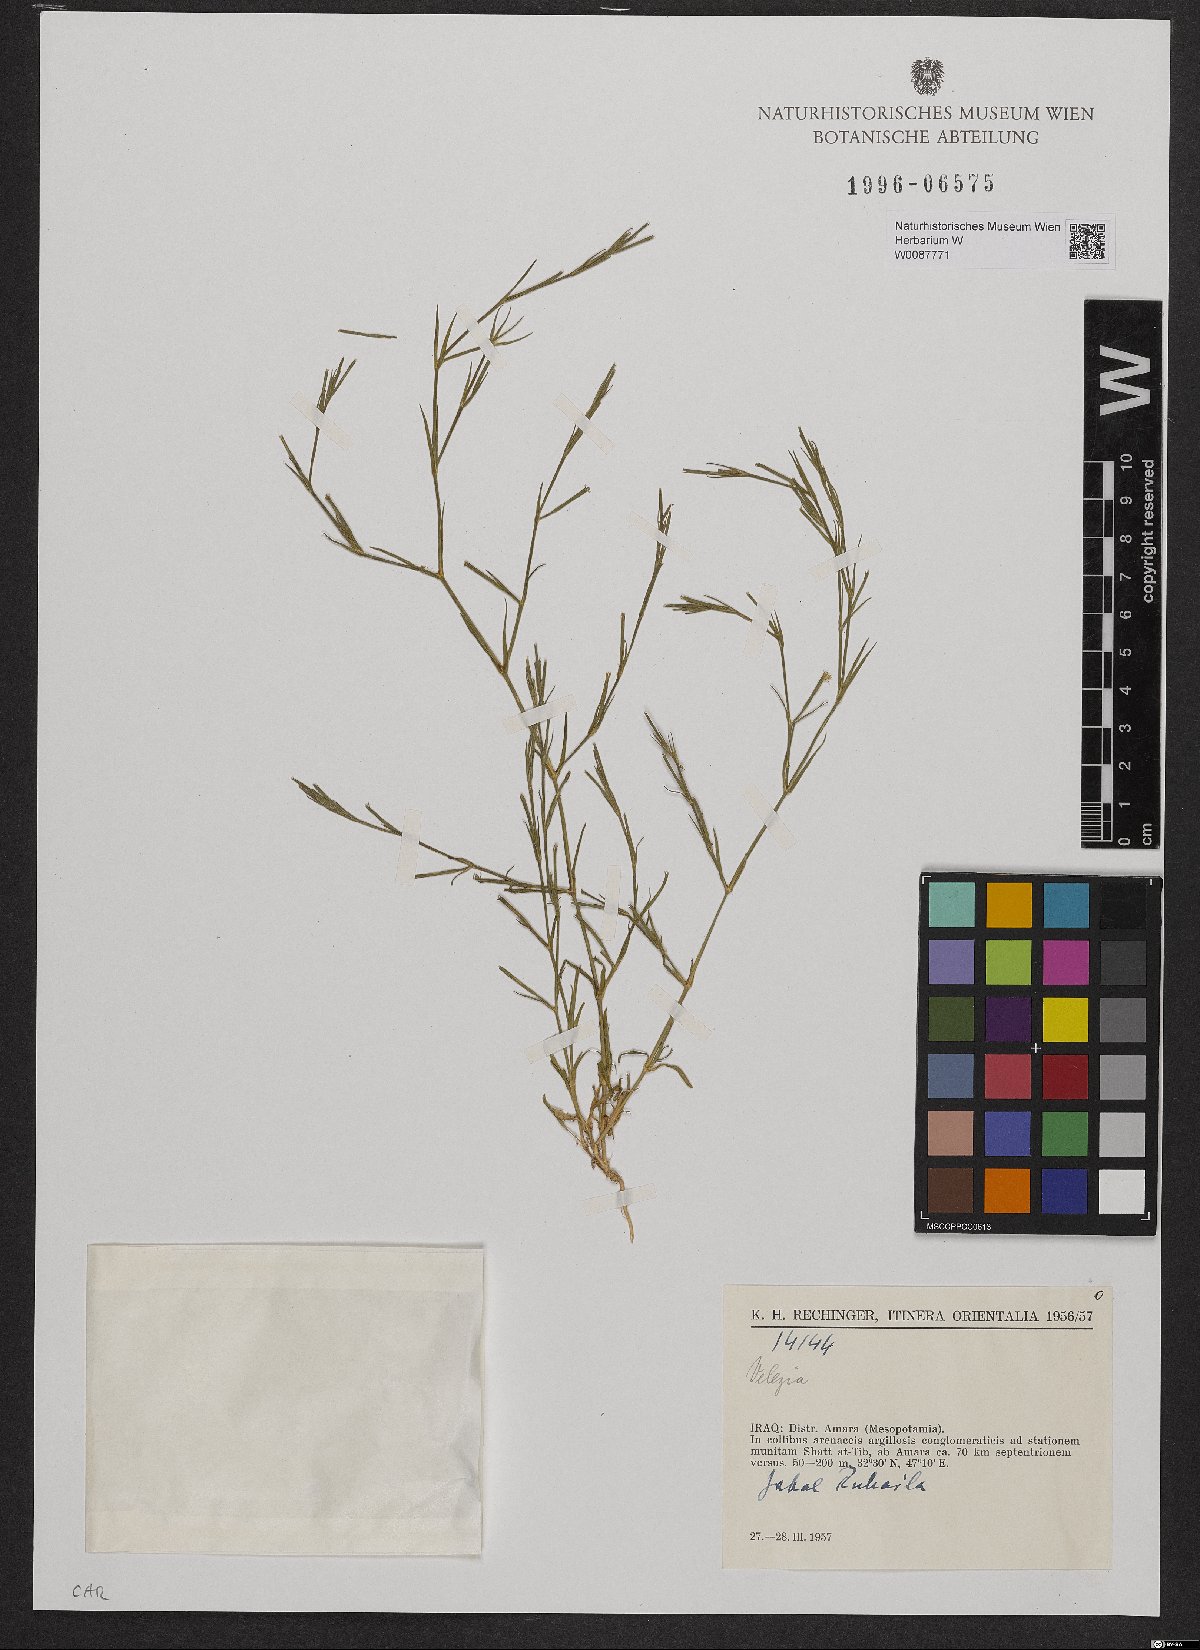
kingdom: Plantae
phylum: Tracheophyta
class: Magnoliopsida
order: Caryophyllales
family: Caryophyllaceae
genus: Dianthus
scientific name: Dianthus
